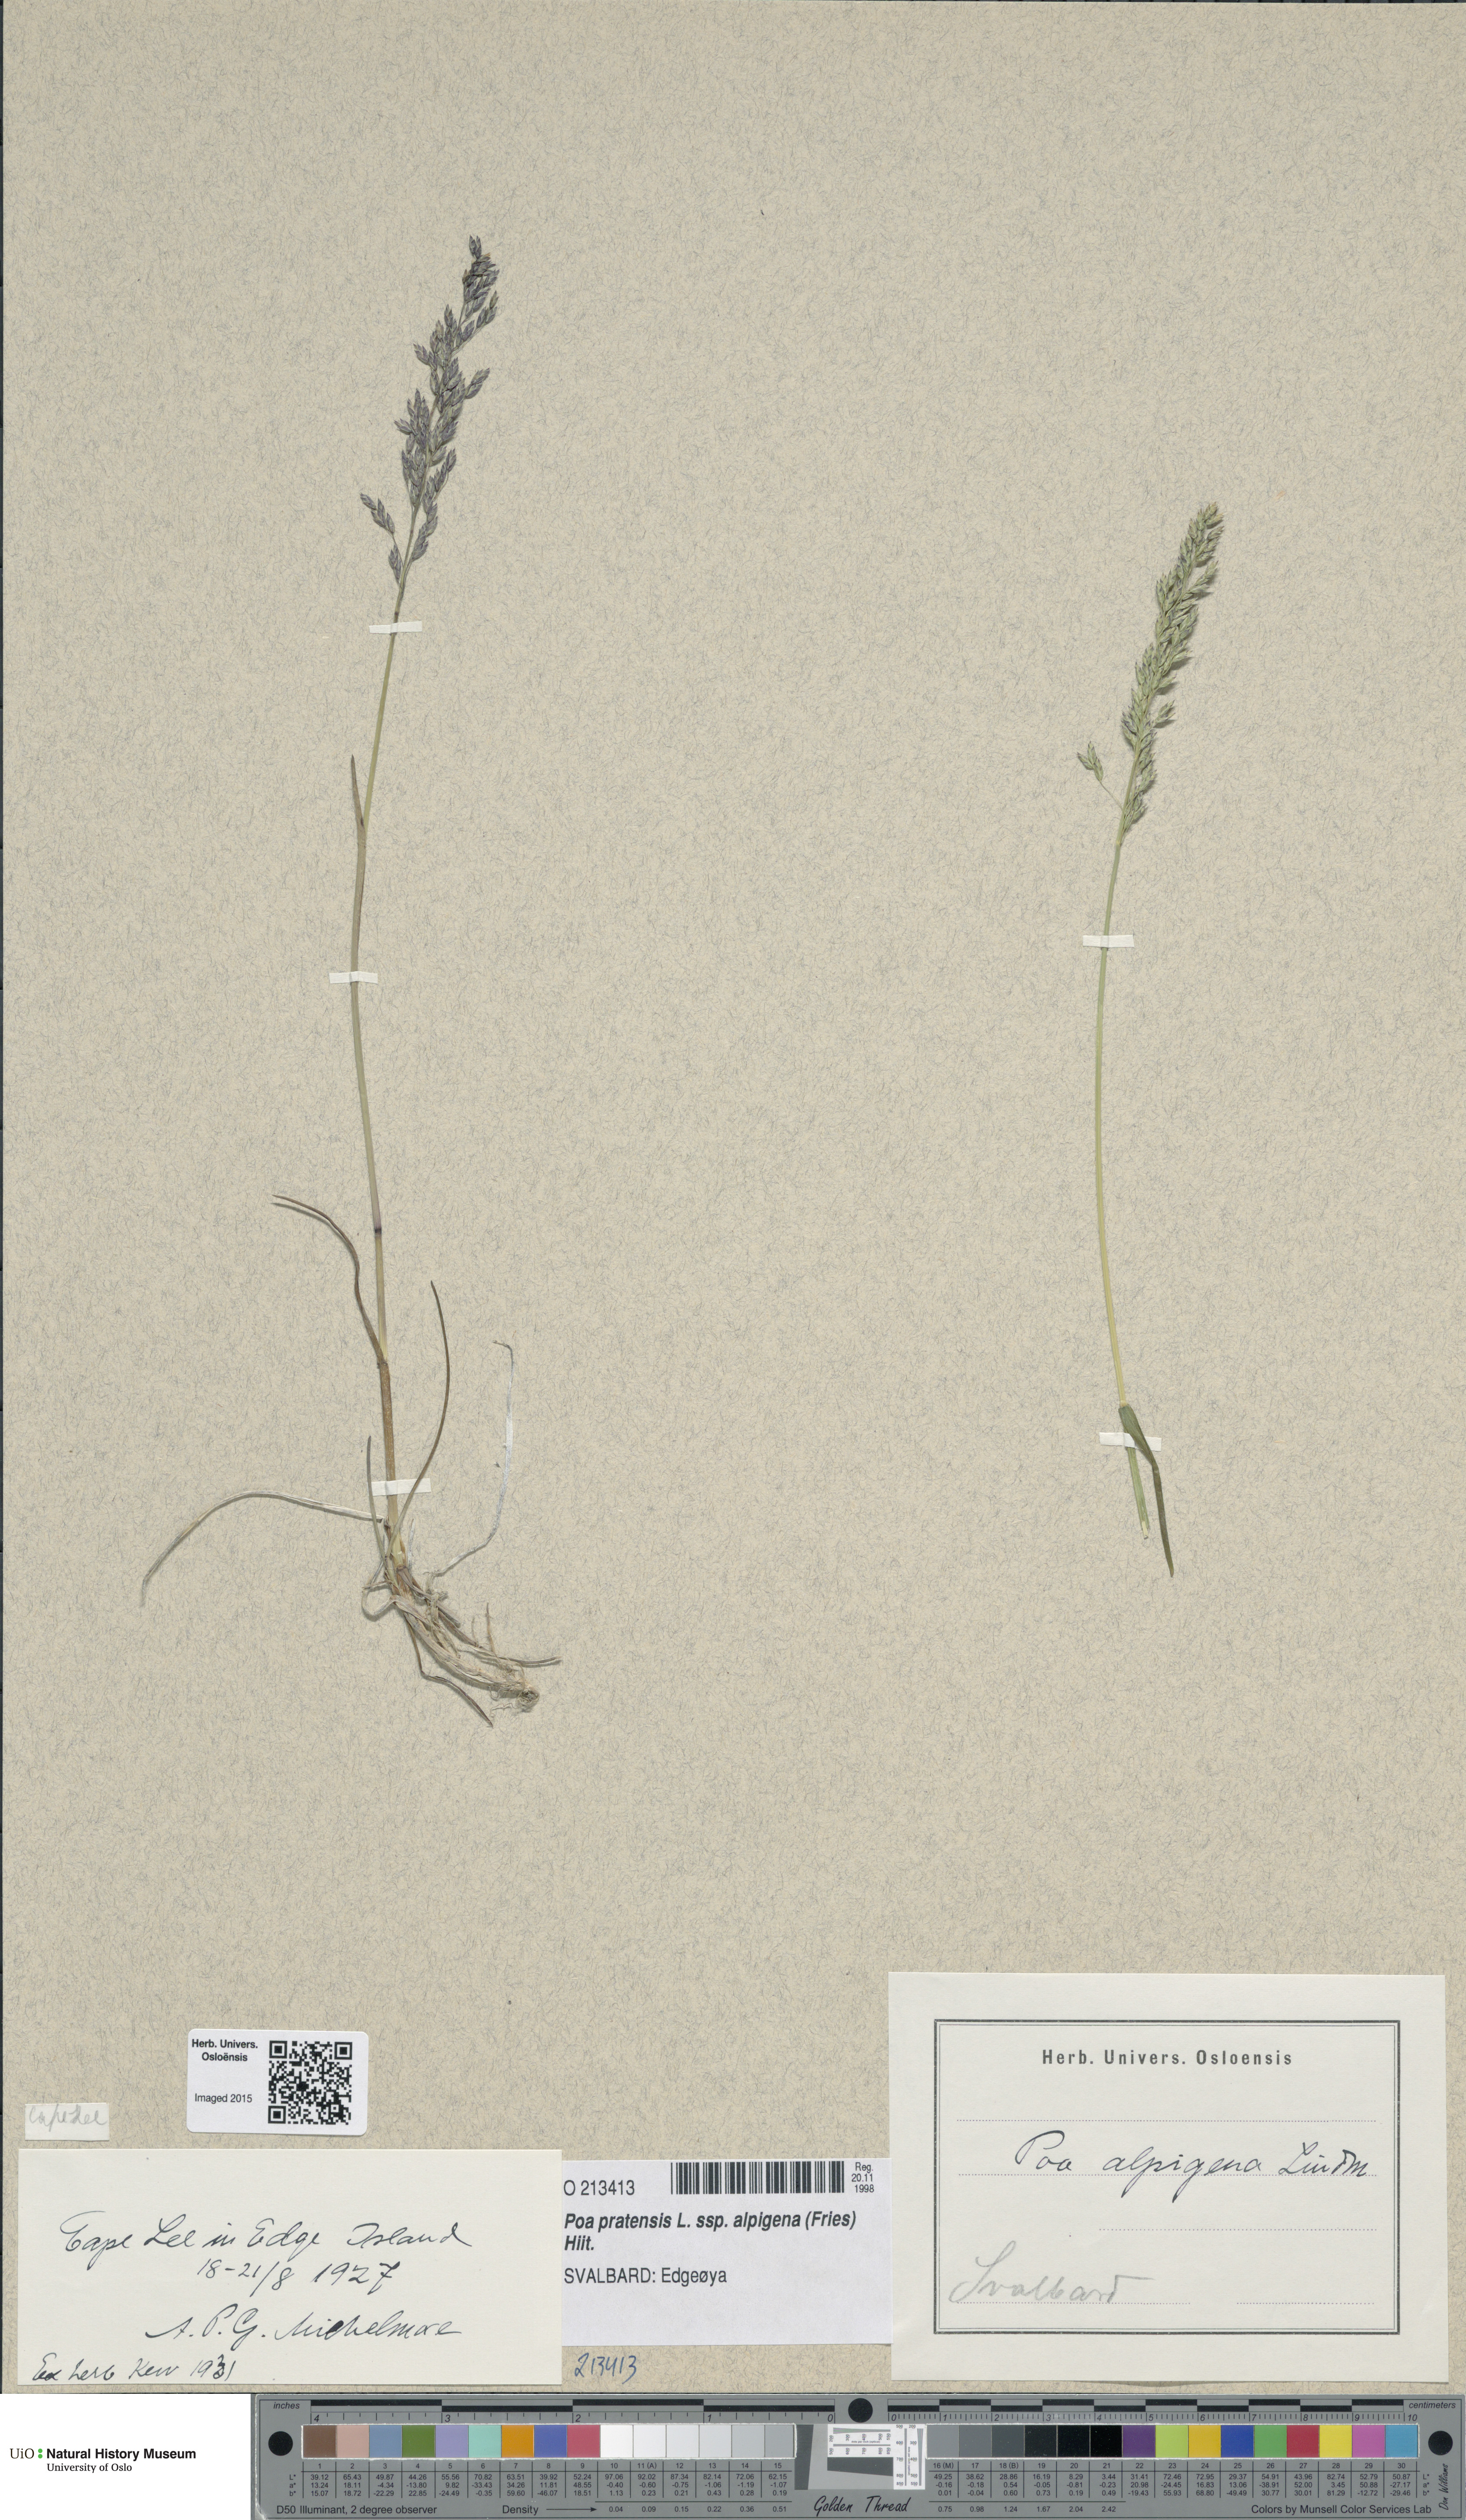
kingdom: Plantae
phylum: Tracheophyta
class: Liliopsida
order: Poales
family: Poaceae
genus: Poa
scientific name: Poa alpigena
